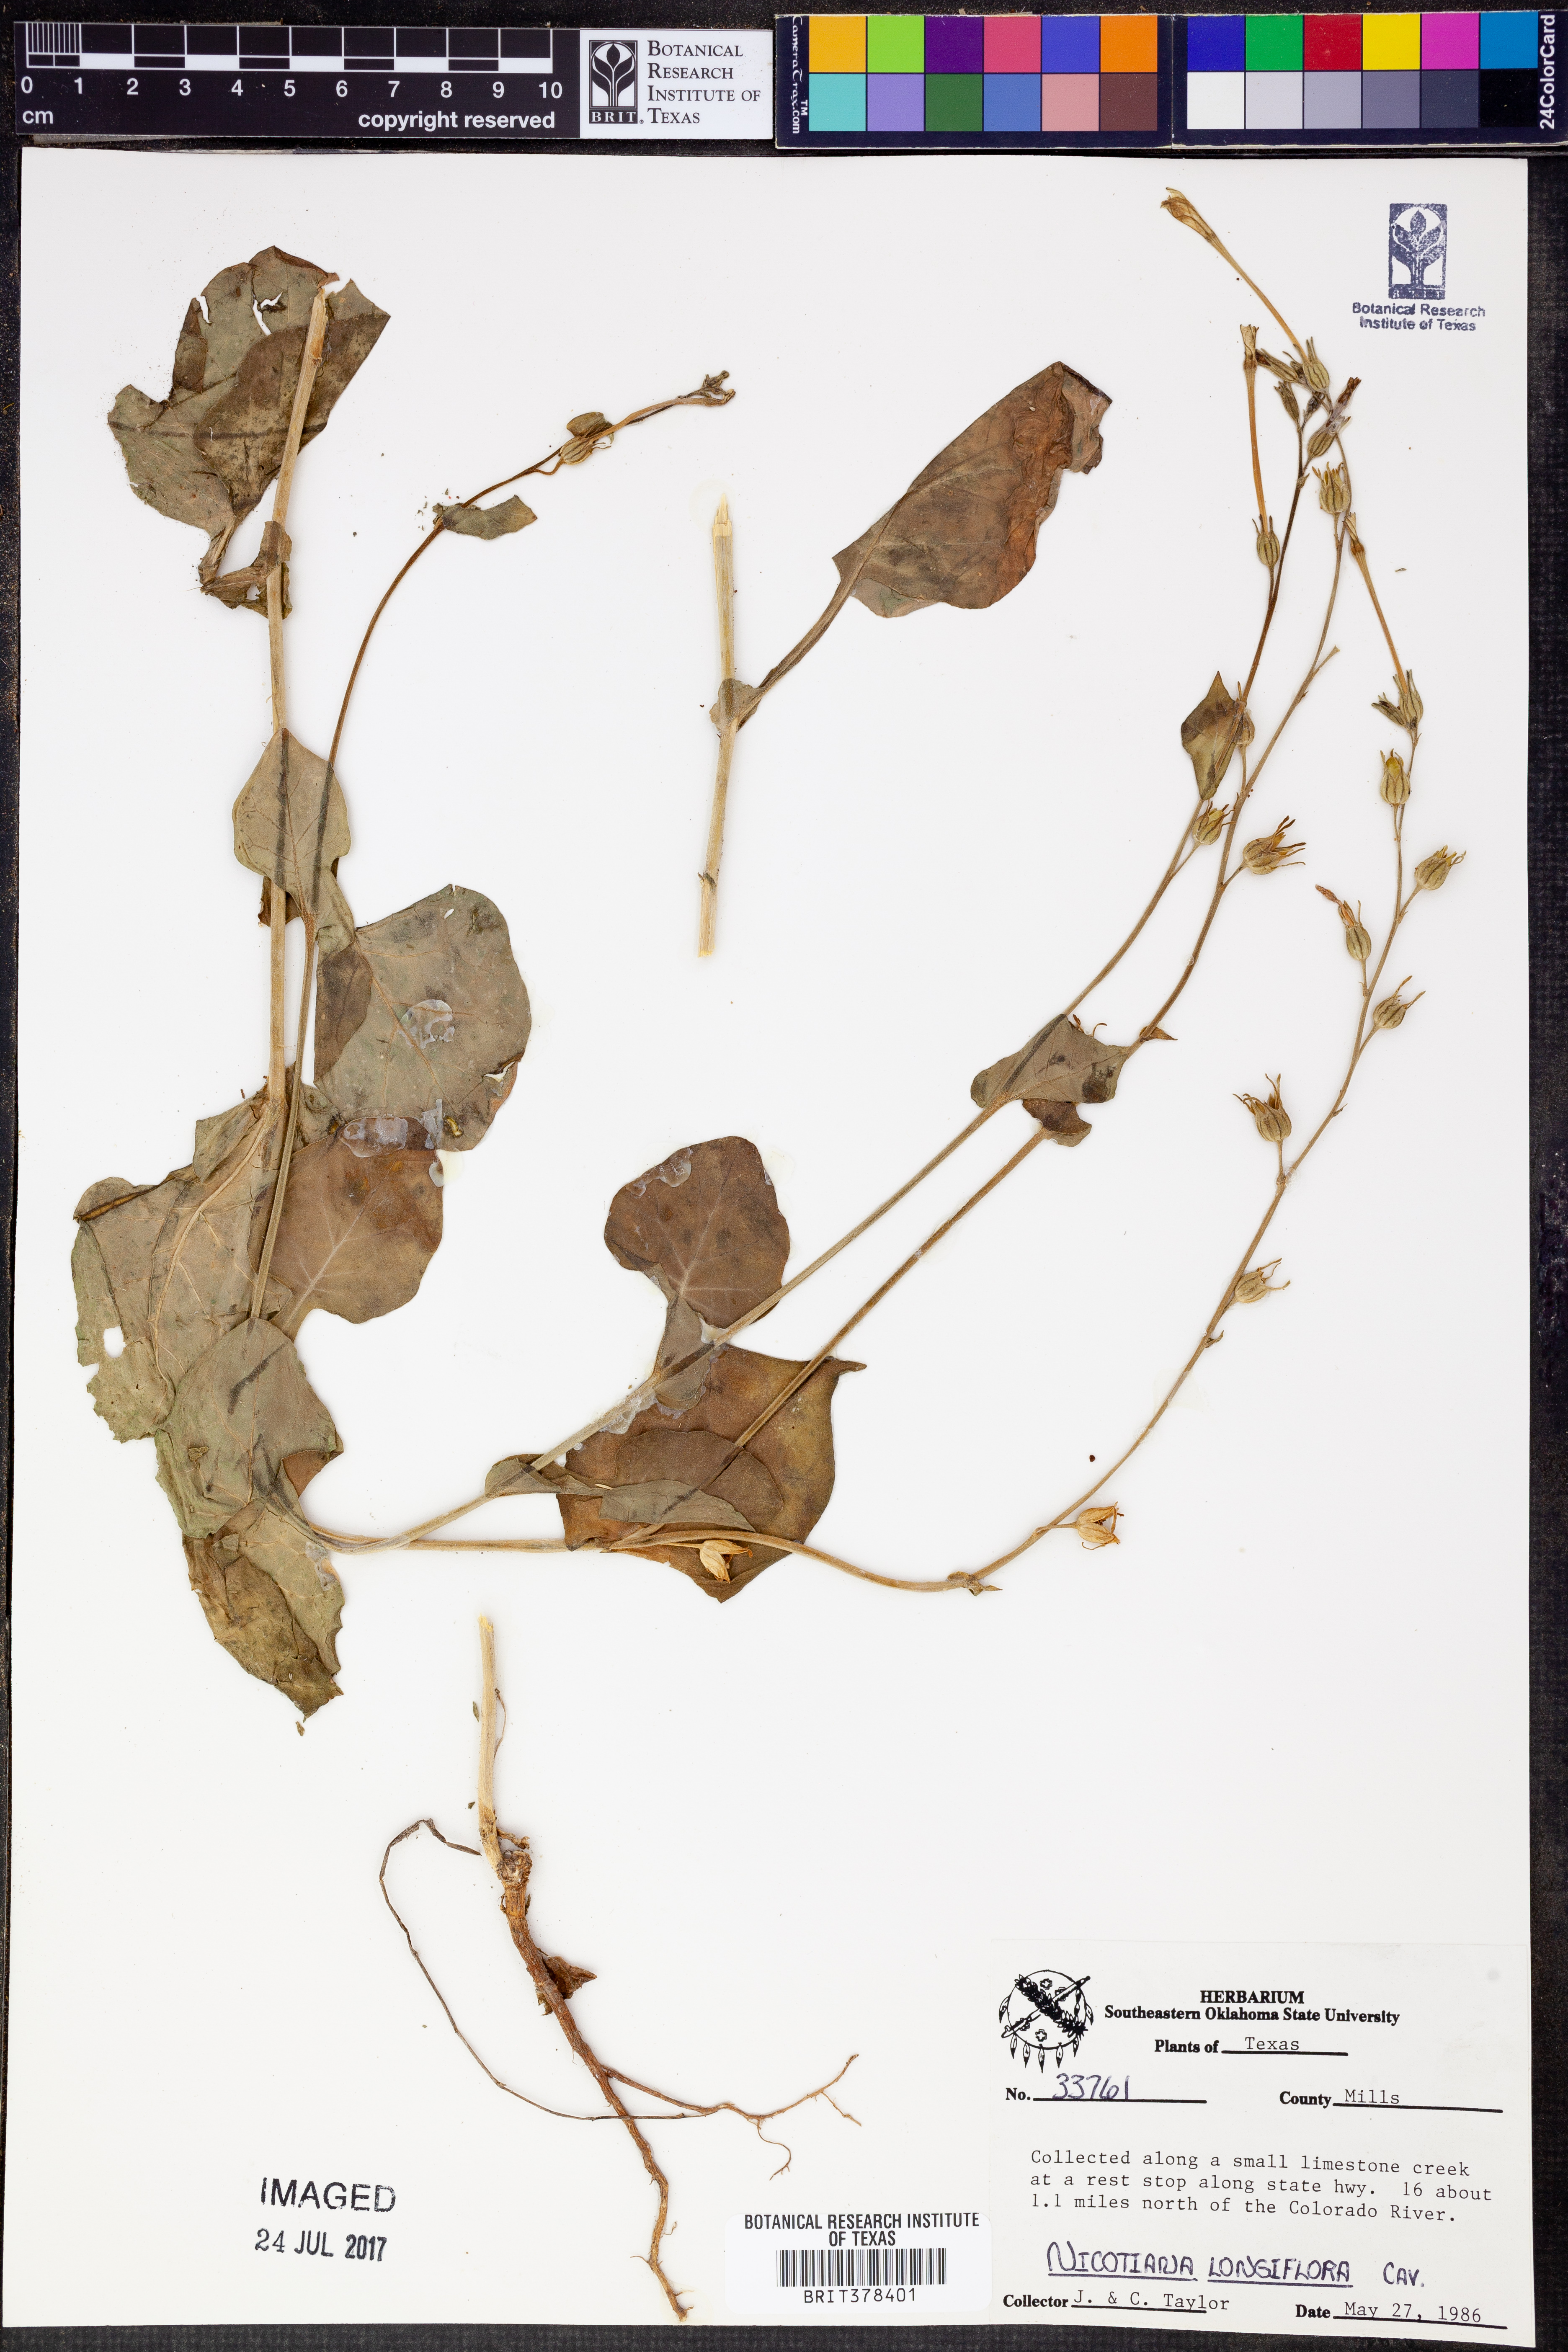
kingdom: Plantae
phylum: Tracheophyta
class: Magnoliopsida
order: Solanales
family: Solanaceae
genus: Nicotiana
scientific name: Nicotiana longiflora
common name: Long-flowered tobacco
